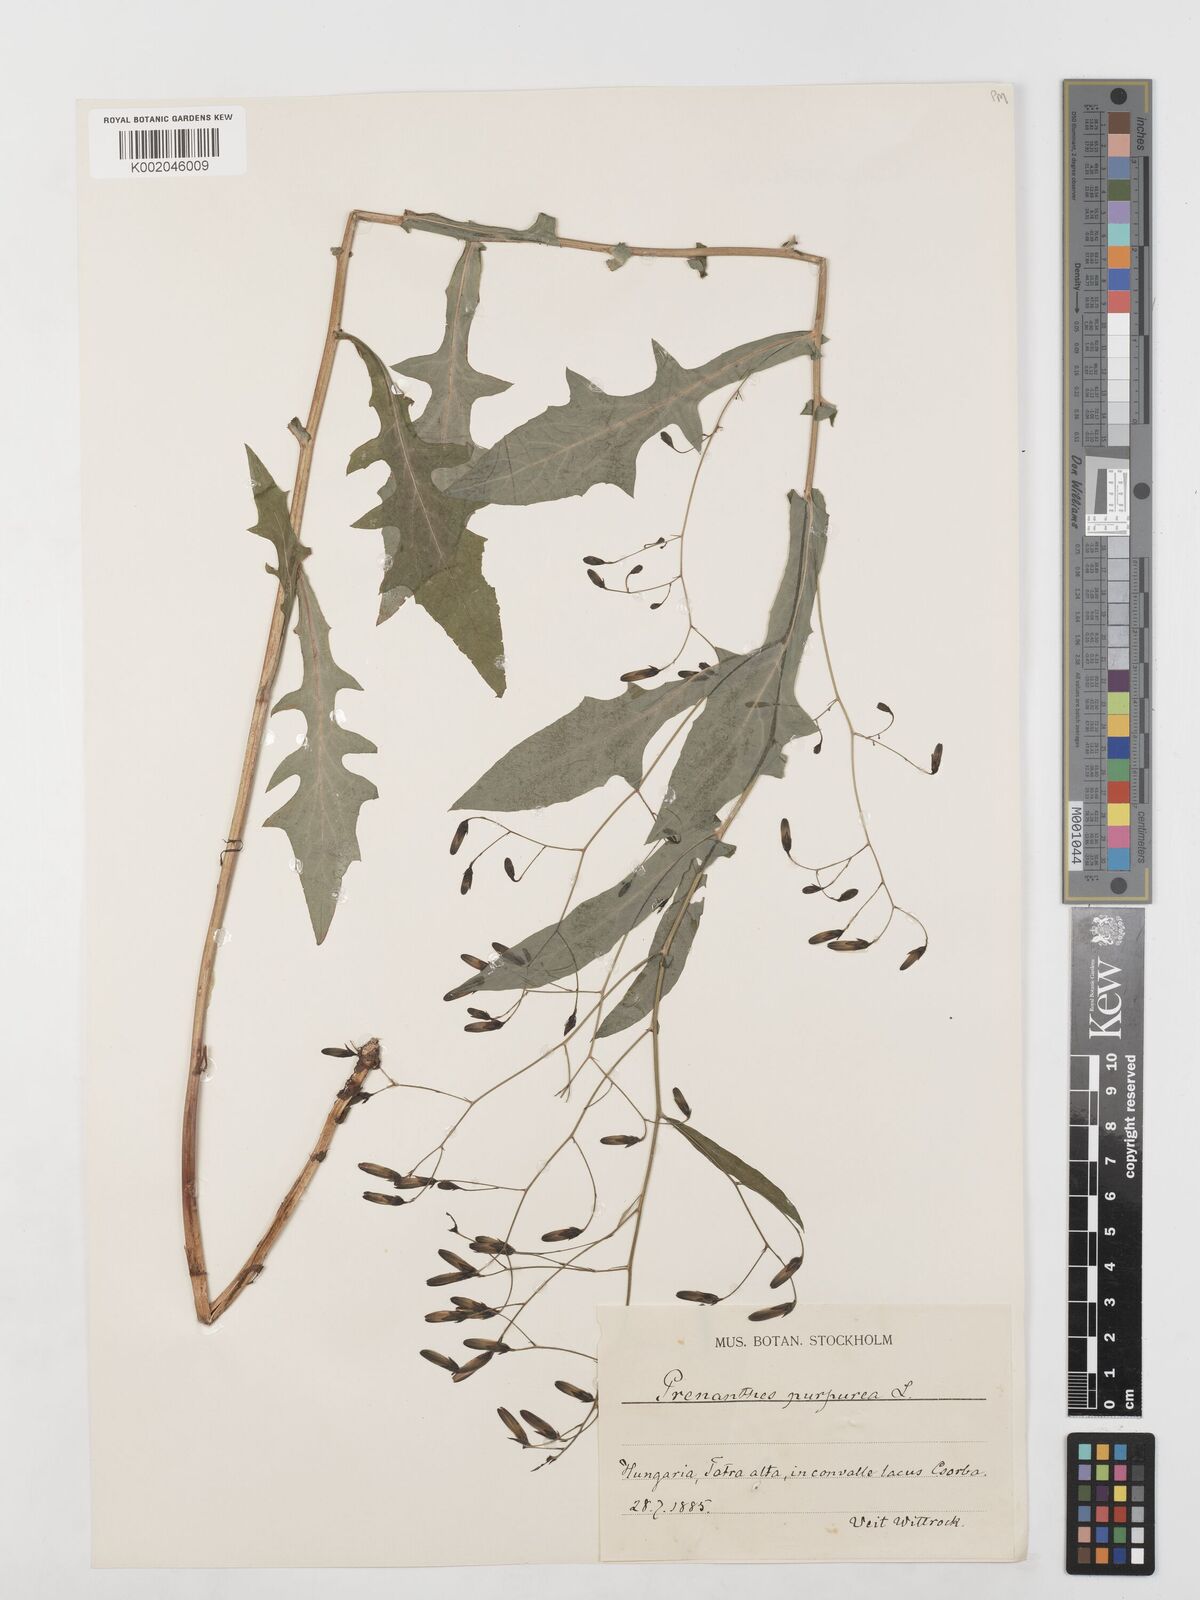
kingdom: Plantae
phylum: Tracheophyta
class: Magnoliopsida
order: Asterales
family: Asteraceae
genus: Prenanthes
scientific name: Prenanthes purpurea
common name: Purple lettuce
